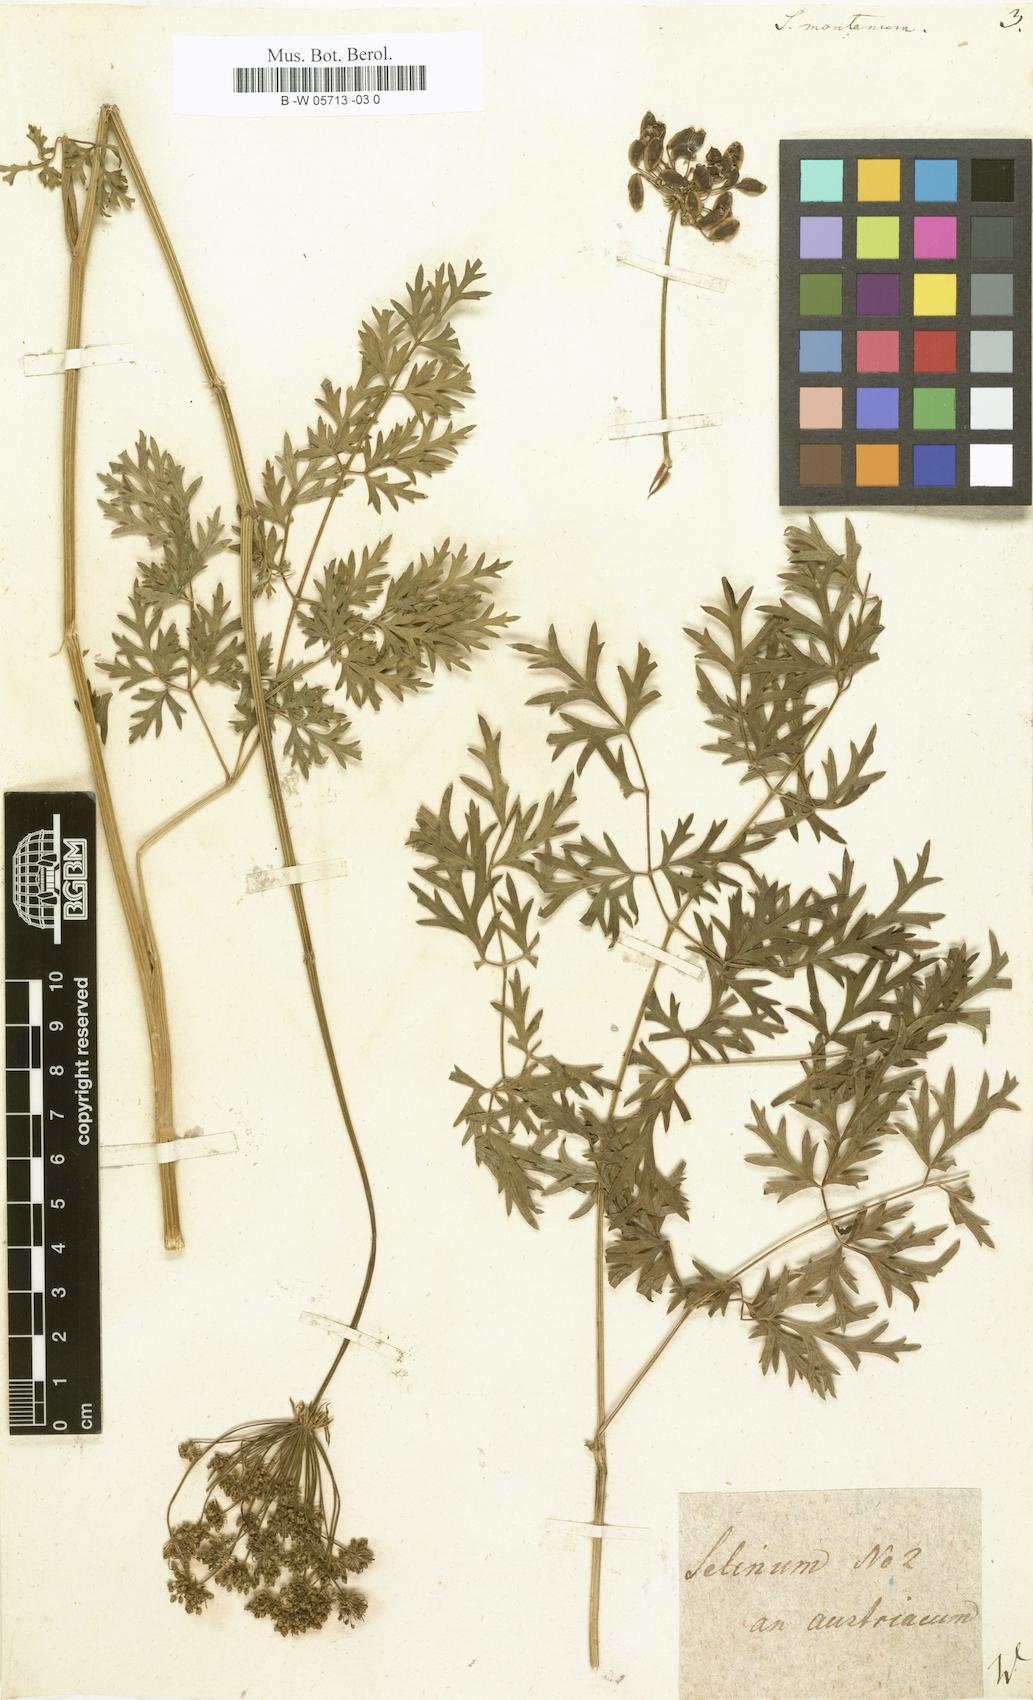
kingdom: Plantae
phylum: Tracheophyta
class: Magnoliopsida
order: Apiales
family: Apiaceae
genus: Peucedanum
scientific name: Peucedanum austriacum
